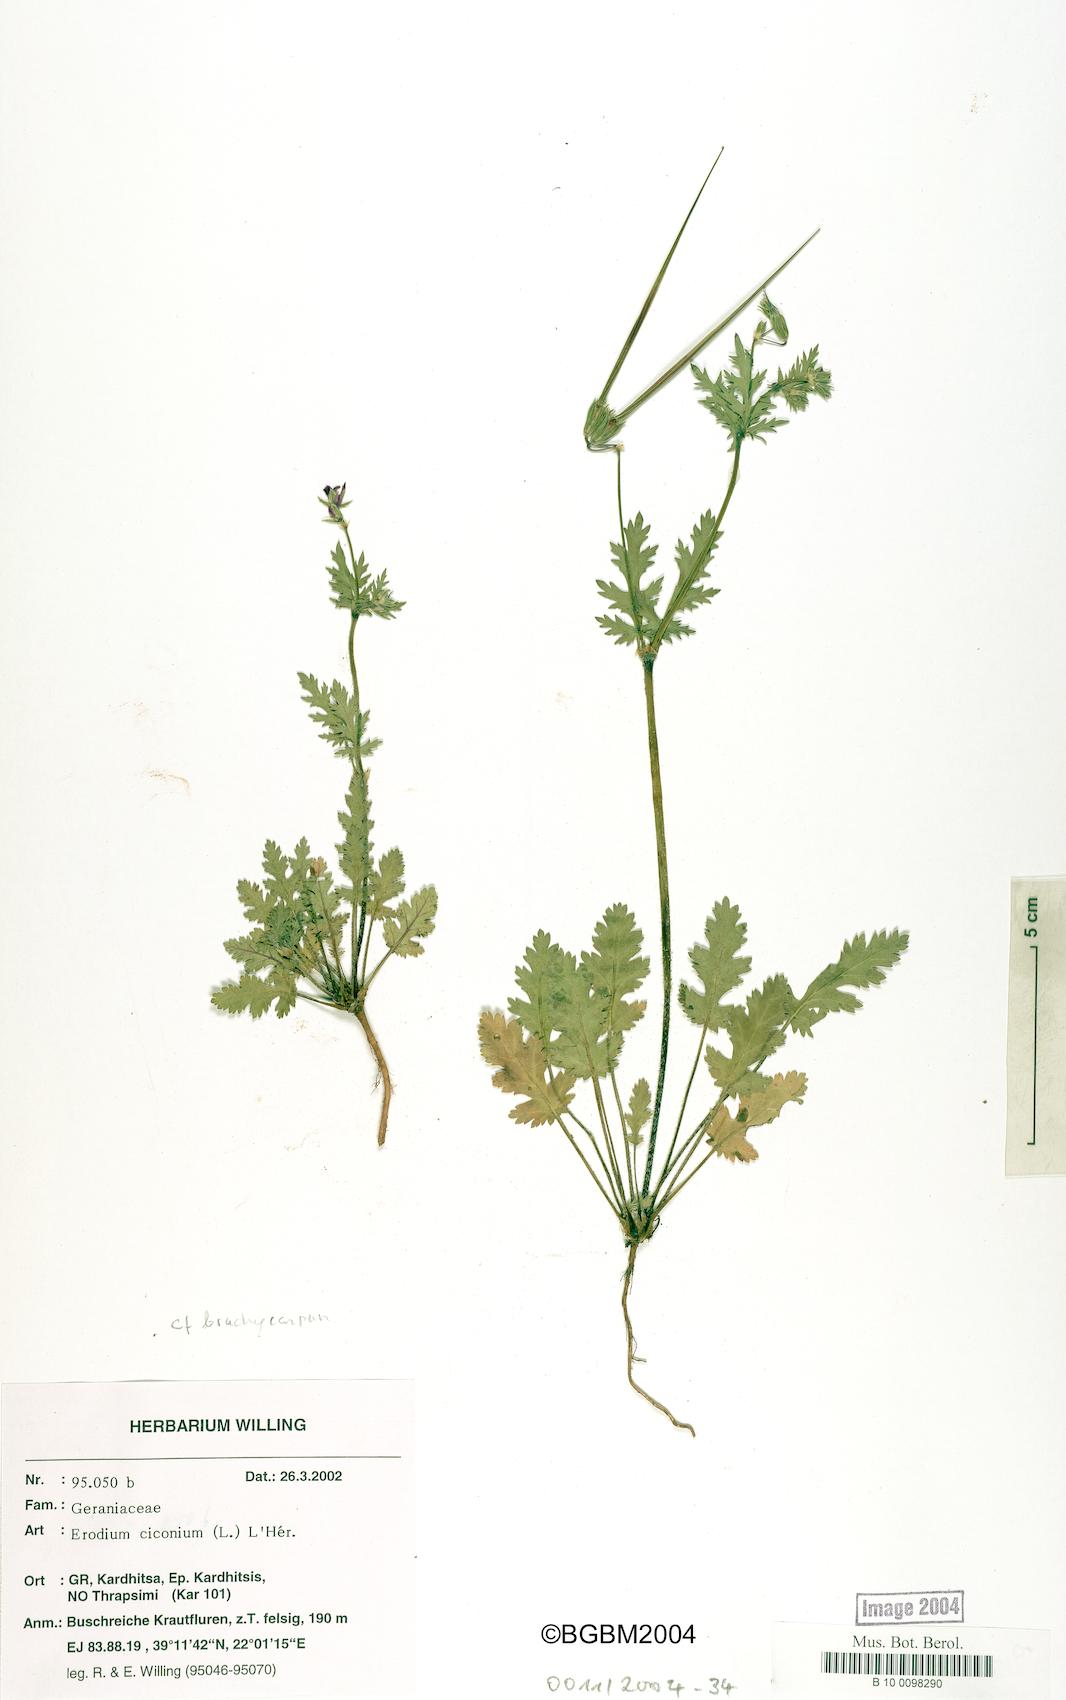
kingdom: Plantae
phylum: Tracheophyta
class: Magnoliopsida
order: Geraniales
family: Geraniaceae
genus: Erodium
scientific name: Erodium botrys
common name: Mediterranean stork's-bill
